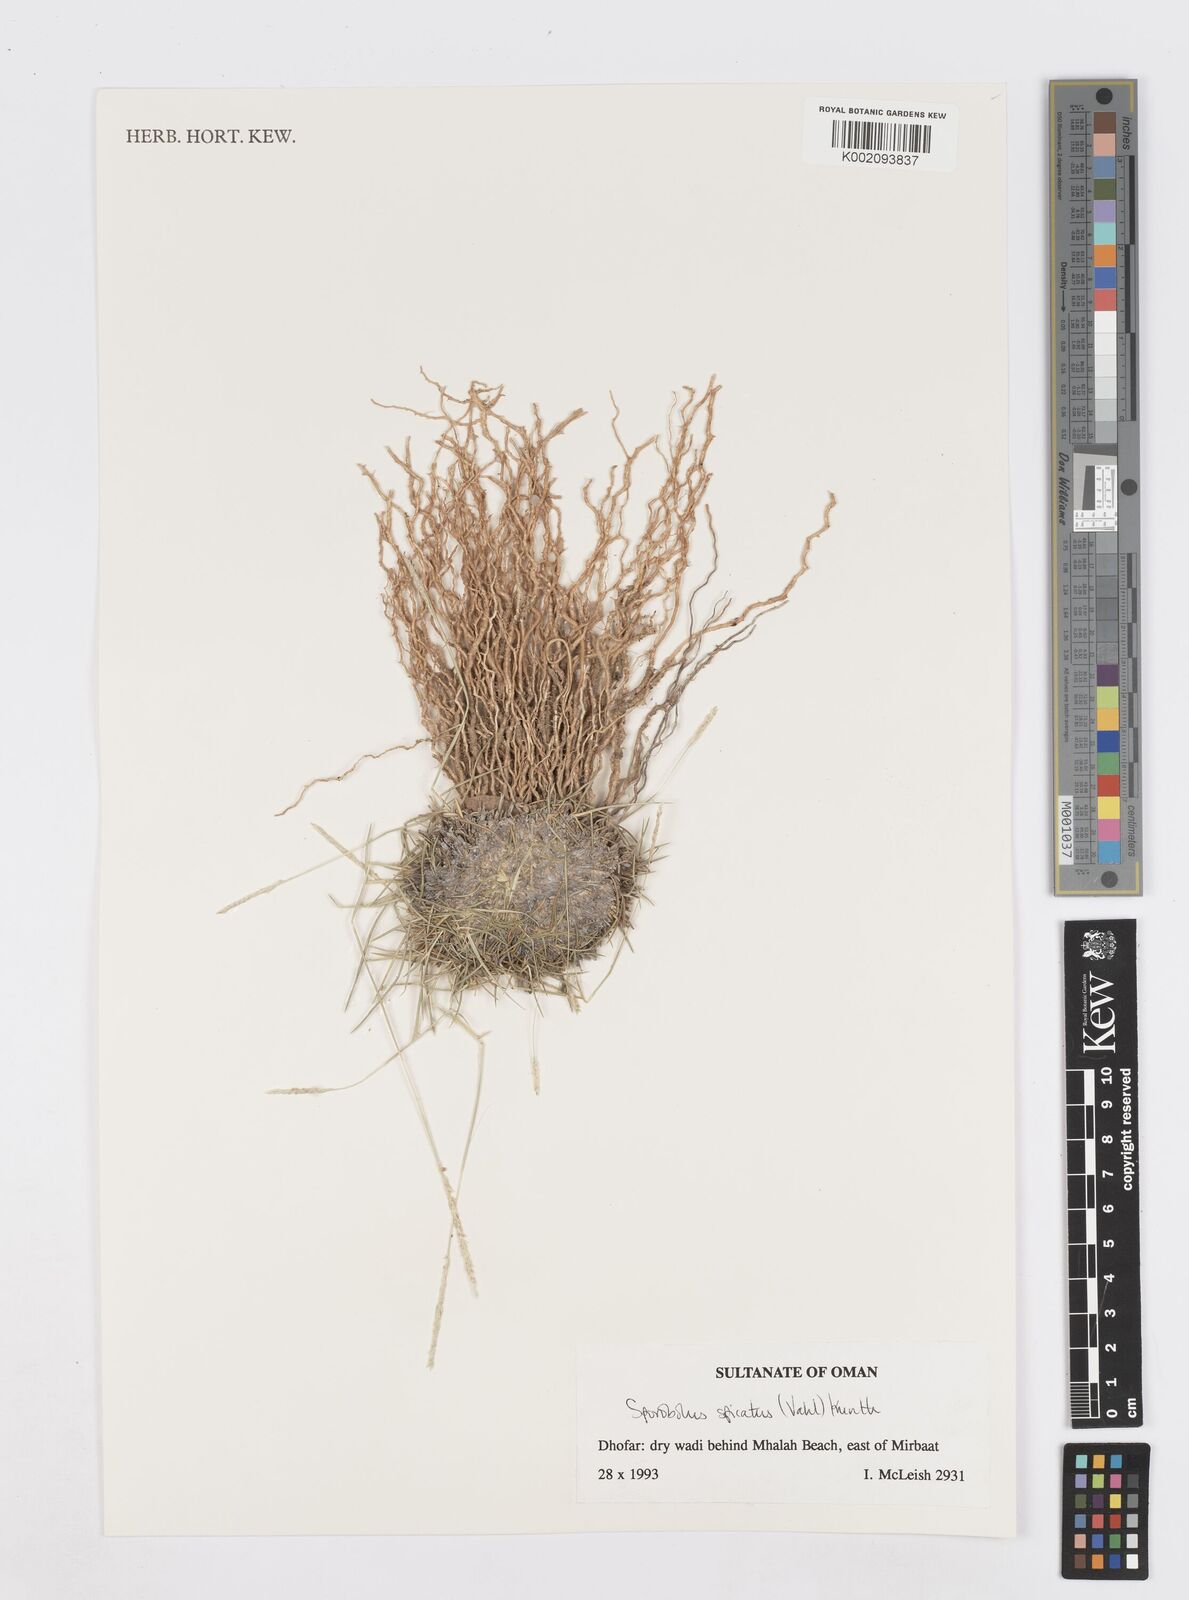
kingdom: Plantae
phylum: Tracheophyta
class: Liliopsida
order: Poales
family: Poaceae
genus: Sporobolus
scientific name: Sporobolus spicatus
